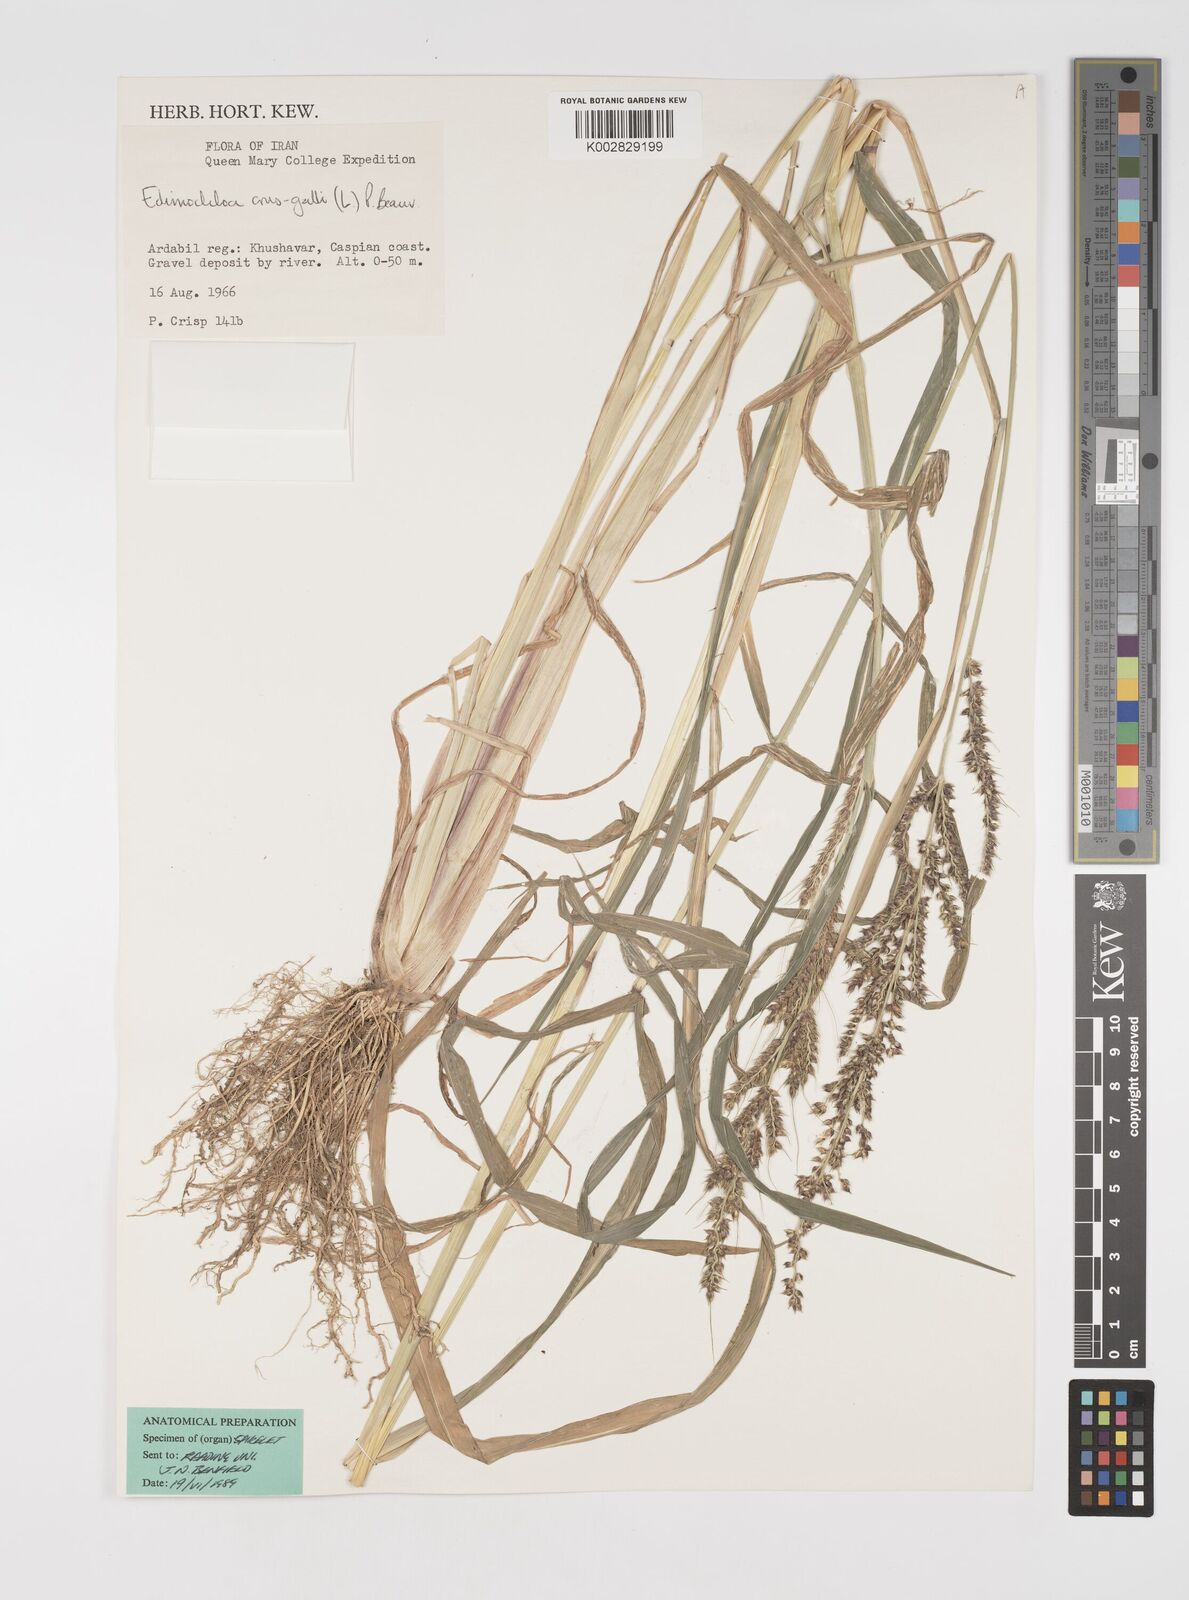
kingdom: Plantae
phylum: Tracheophyta
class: Liliopsida
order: Poales
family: Poaceae
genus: Echinochloa
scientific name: Echinochloa crus-galli
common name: Cockspur
